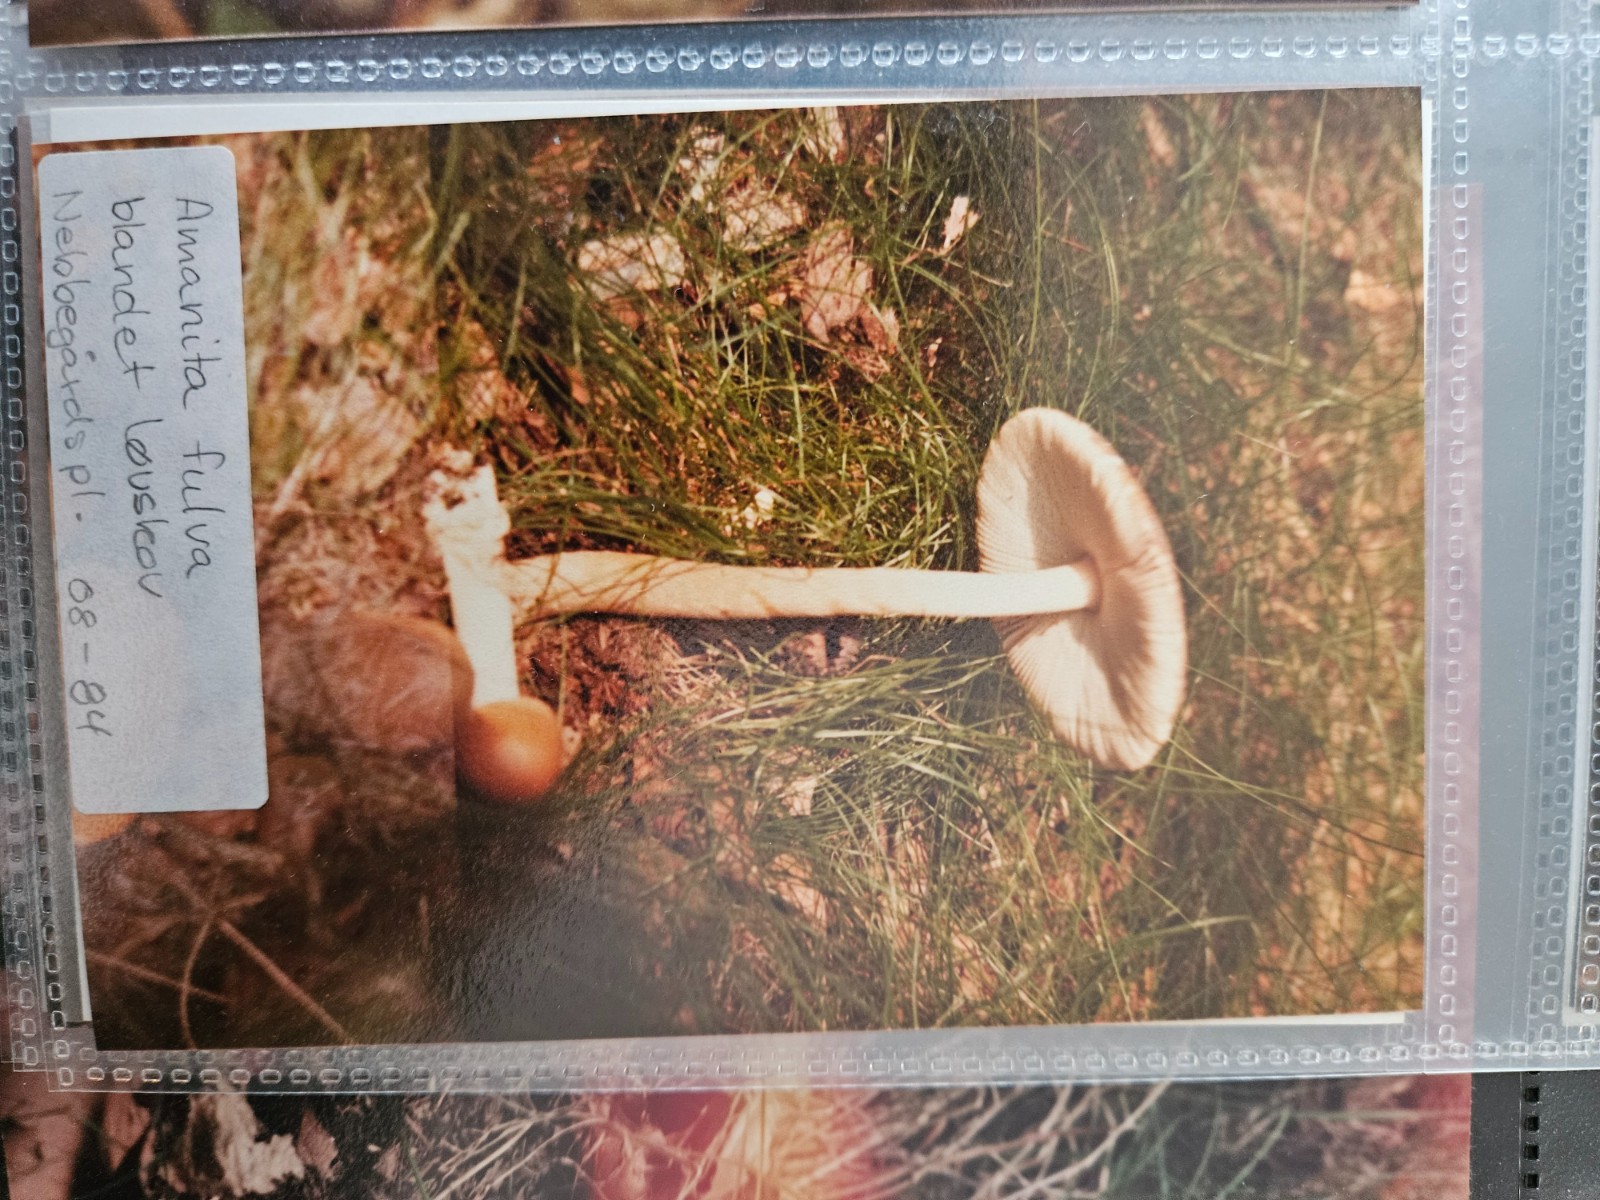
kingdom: Fungi
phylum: Basidiomycota
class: Agaricomycetes
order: Agaricales
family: Amanitaceae
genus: Amanita
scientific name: Amanita fulva
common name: brun kam-fluesvamp
